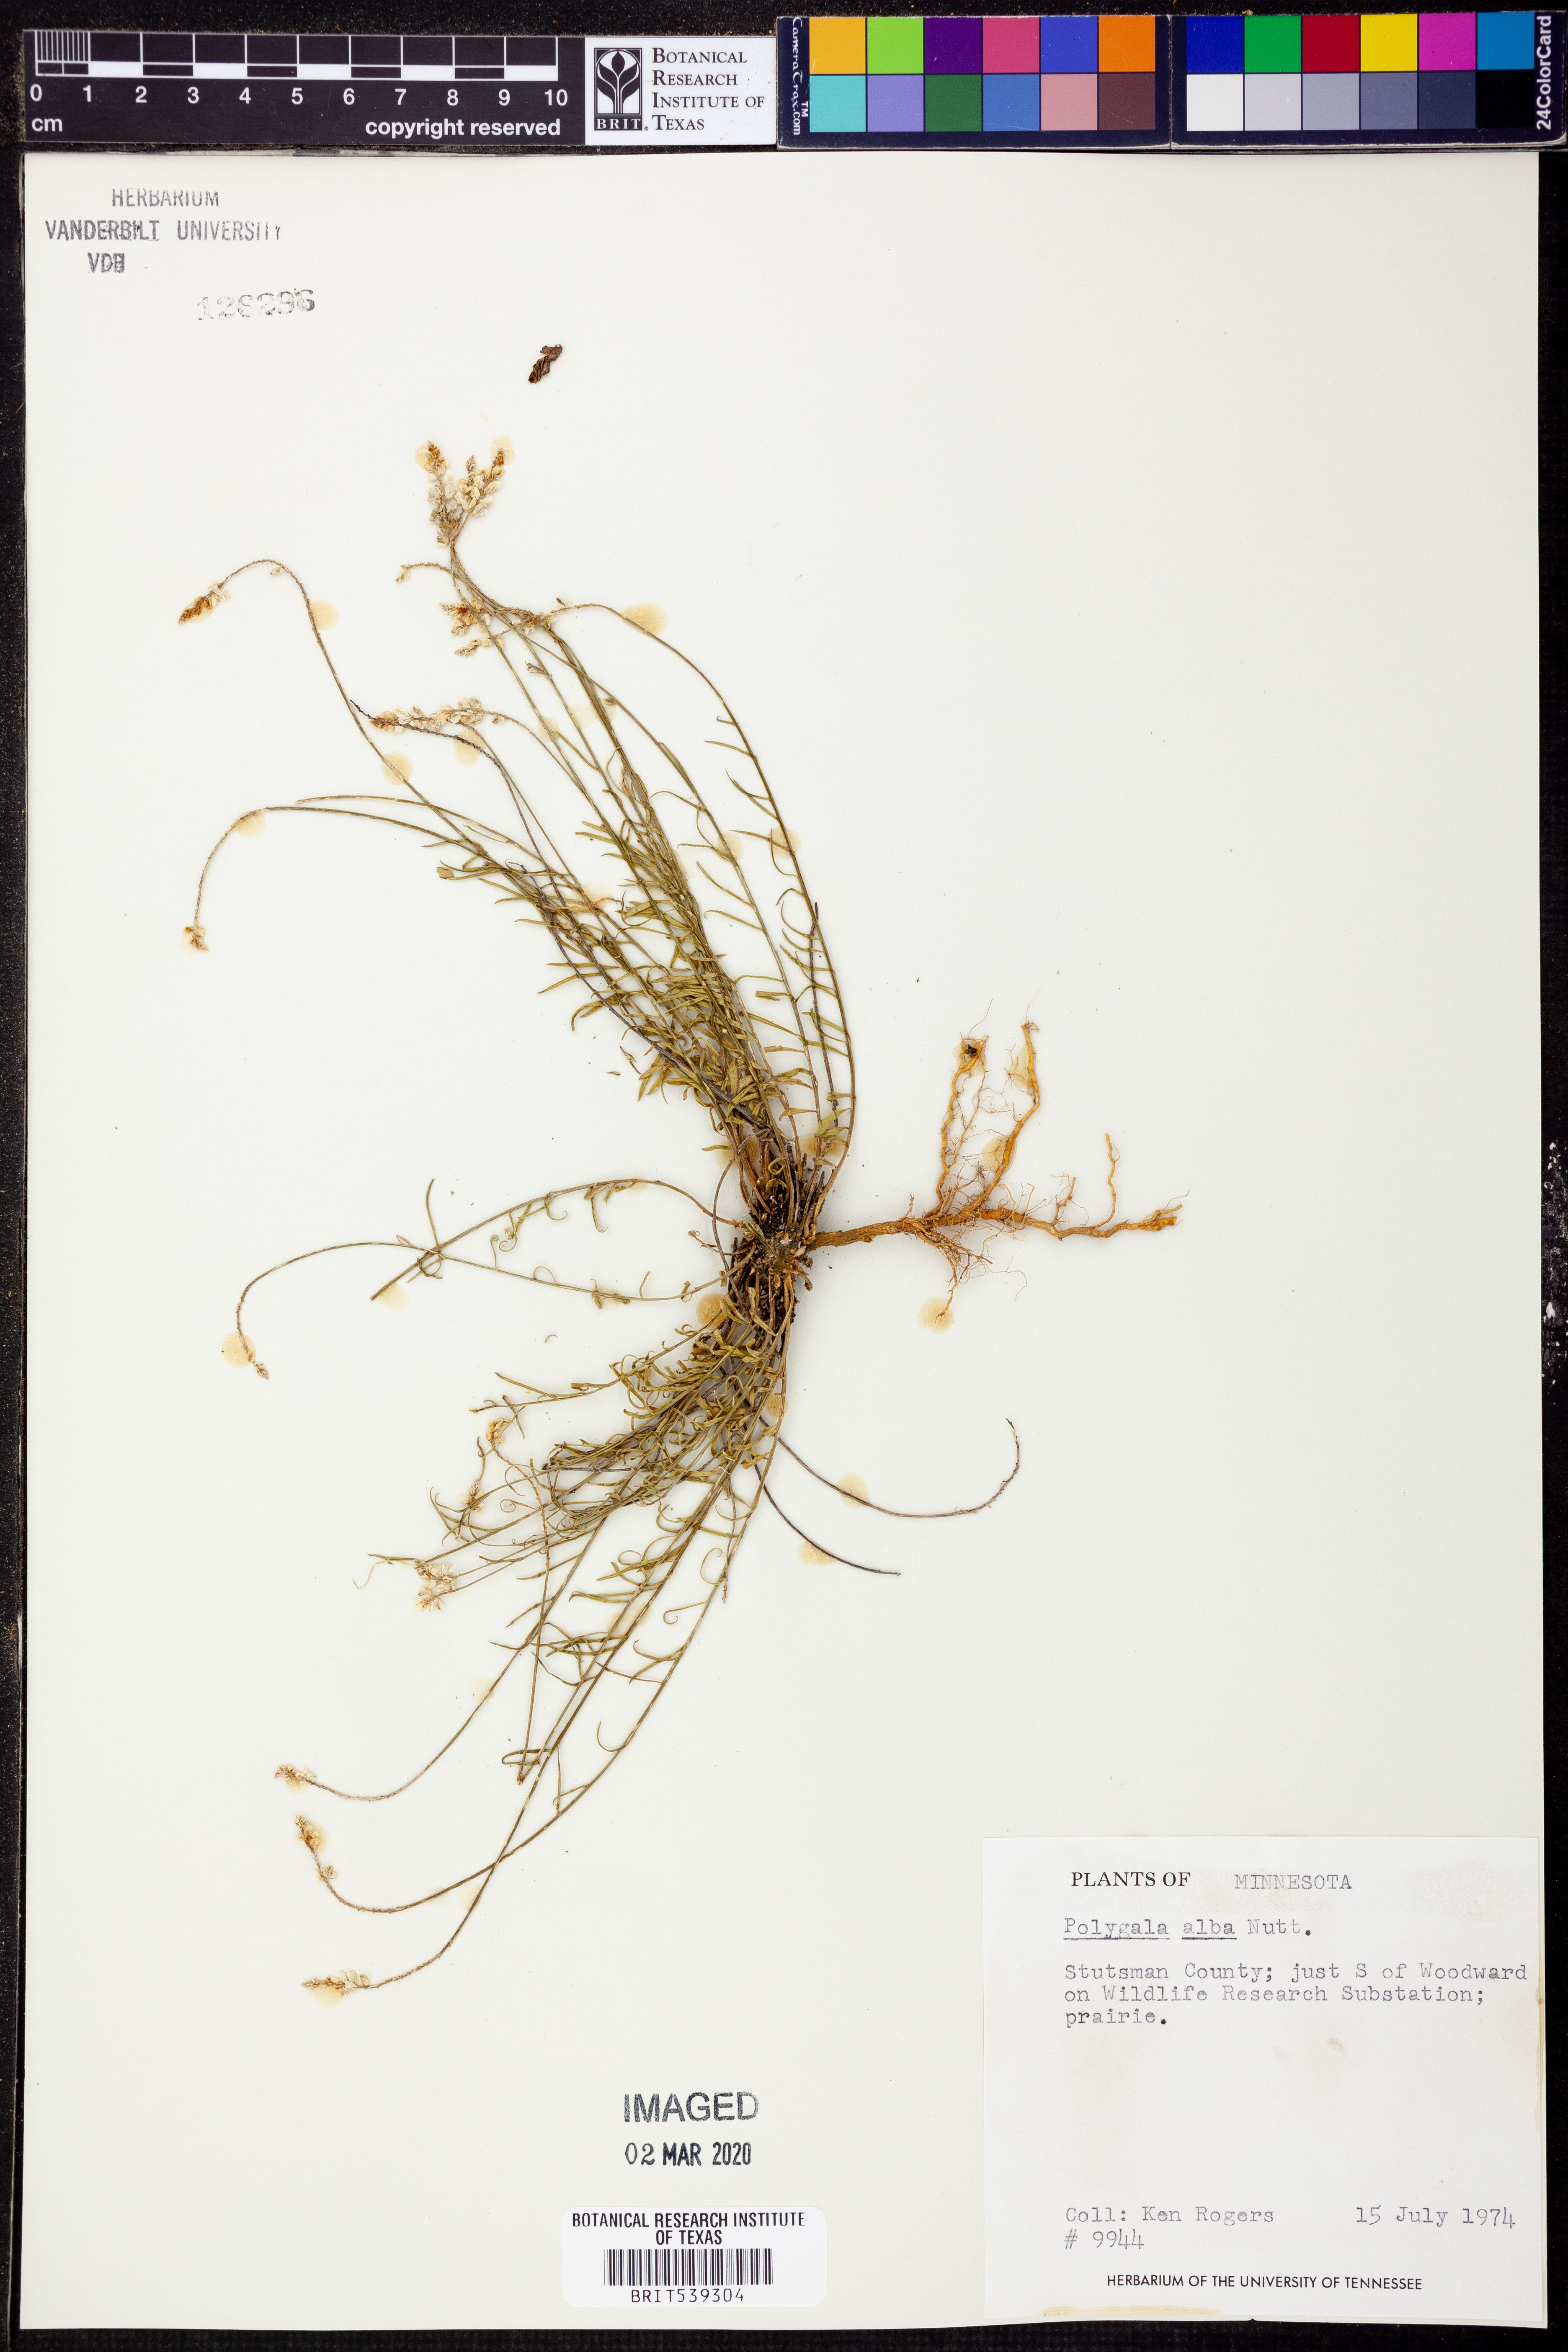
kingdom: Plantae
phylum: Tracheophyta
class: Magnoliopsida
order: Fabales
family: Polygalaceae
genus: Polygala
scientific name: Polygala alba
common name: White milkwort
